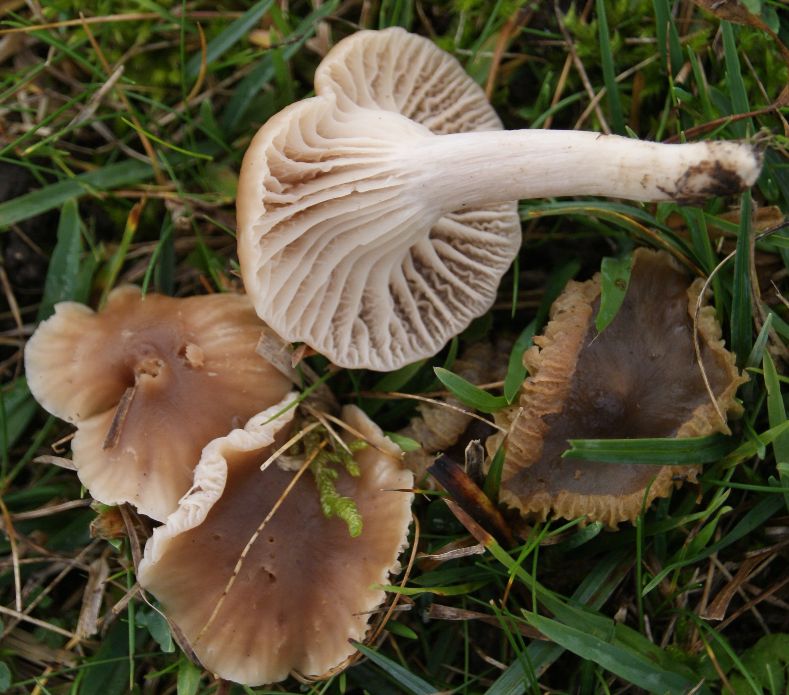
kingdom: Fungi
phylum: Basidiomycota
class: Agaricomycetes
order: Agaricales
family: Hygrophoraceae
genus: Cuphophyllus
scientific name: Cuphophyllus colemannianus
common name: rødbrun vokshat
